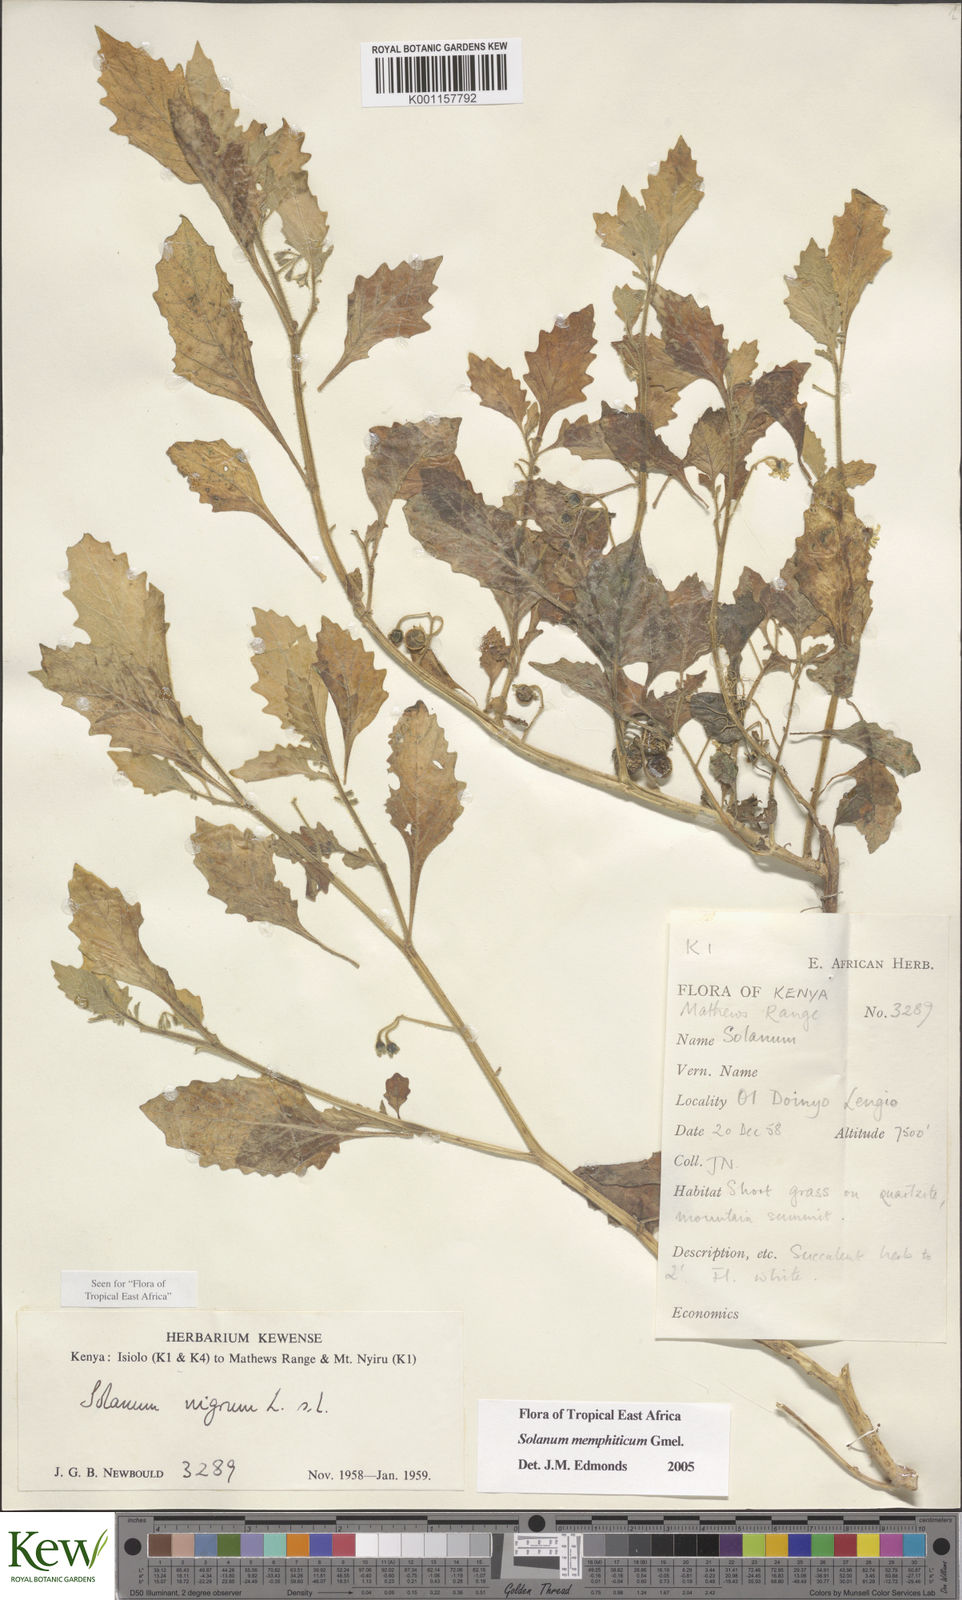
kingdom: Plantae
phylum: Tracheophyta
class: Magnoliopsida
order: Solanales
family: Solanaceae
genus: Solanum
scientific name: Solanum memphiticum
